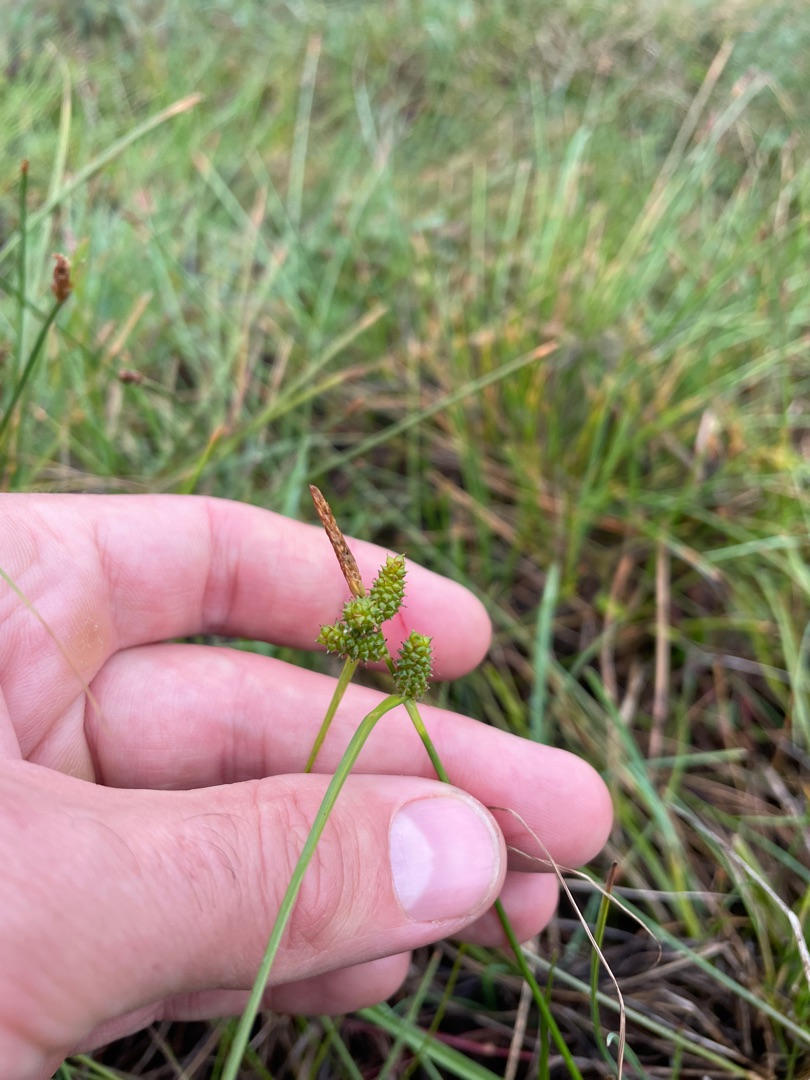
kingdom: Plantae
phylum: Tracheophyta
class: Liliopsida
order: Poales
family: Cyperaceae
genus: Carex
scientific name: Carex oederi
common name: Dværg-star
